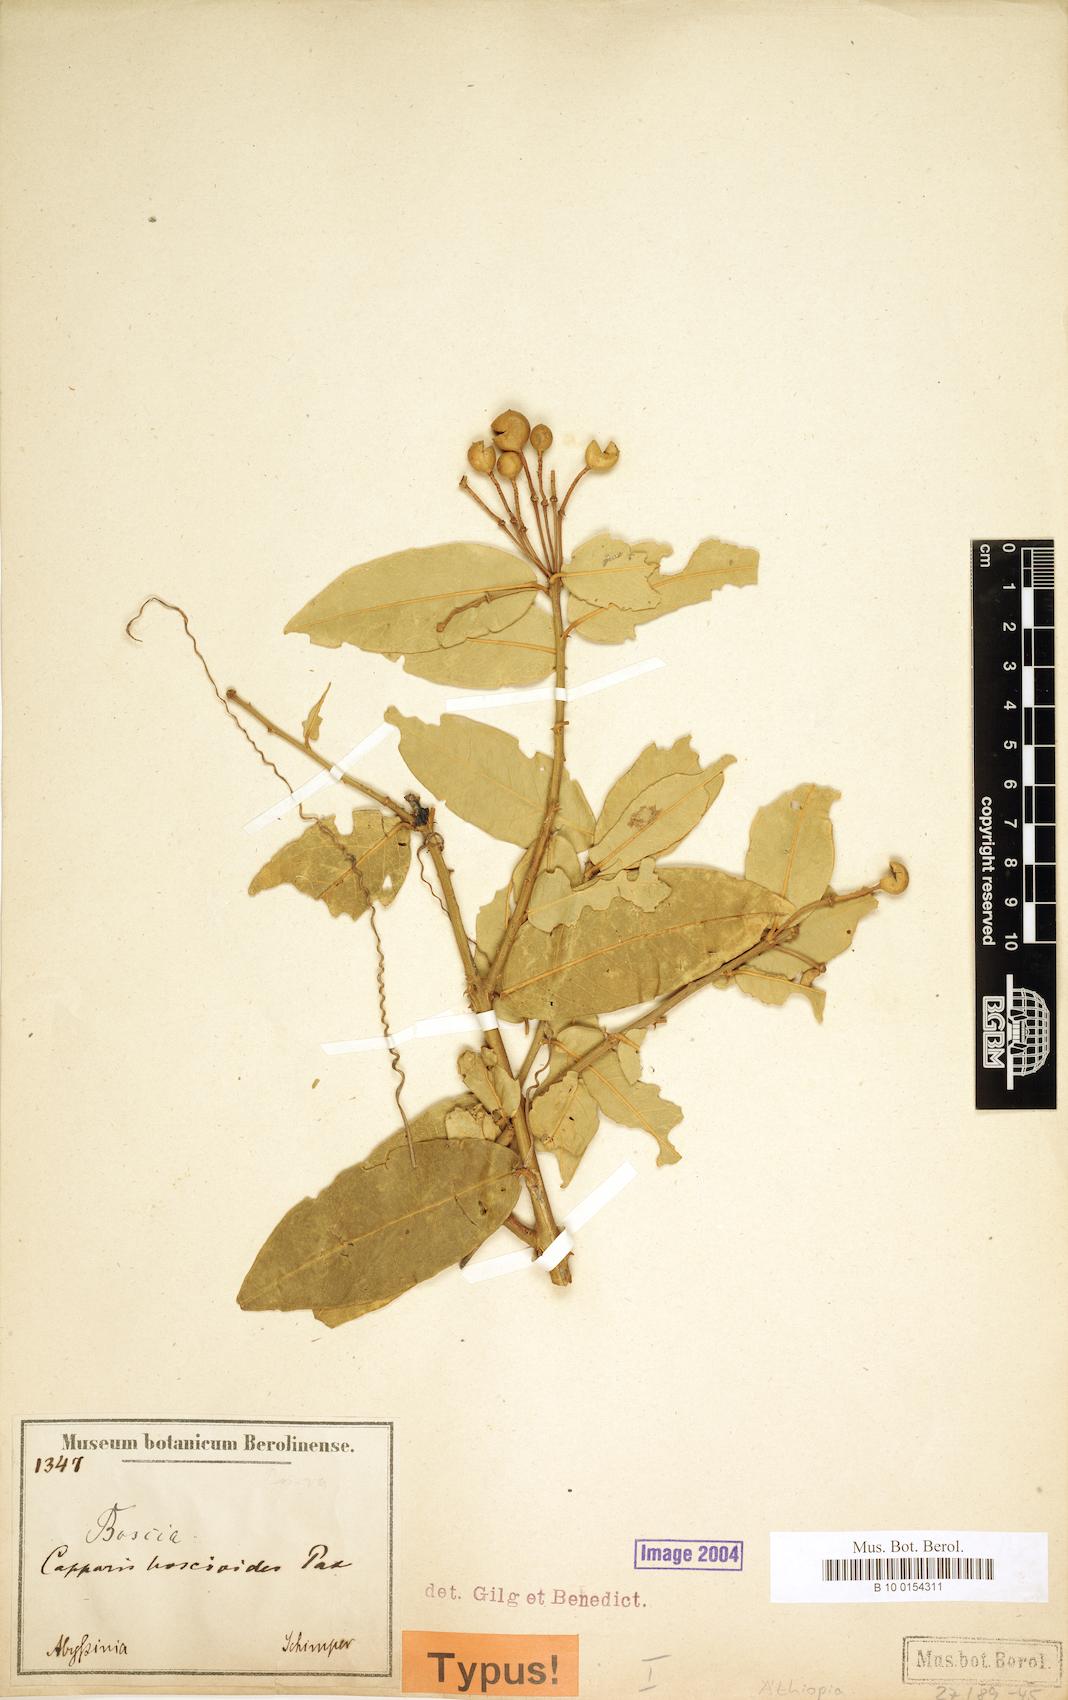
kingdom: Plantae
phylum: Tracheophyta
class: Magnoliopsida
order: Brassicales
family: Capparaceae
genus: Capparis
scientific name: Capparis sepiaria
